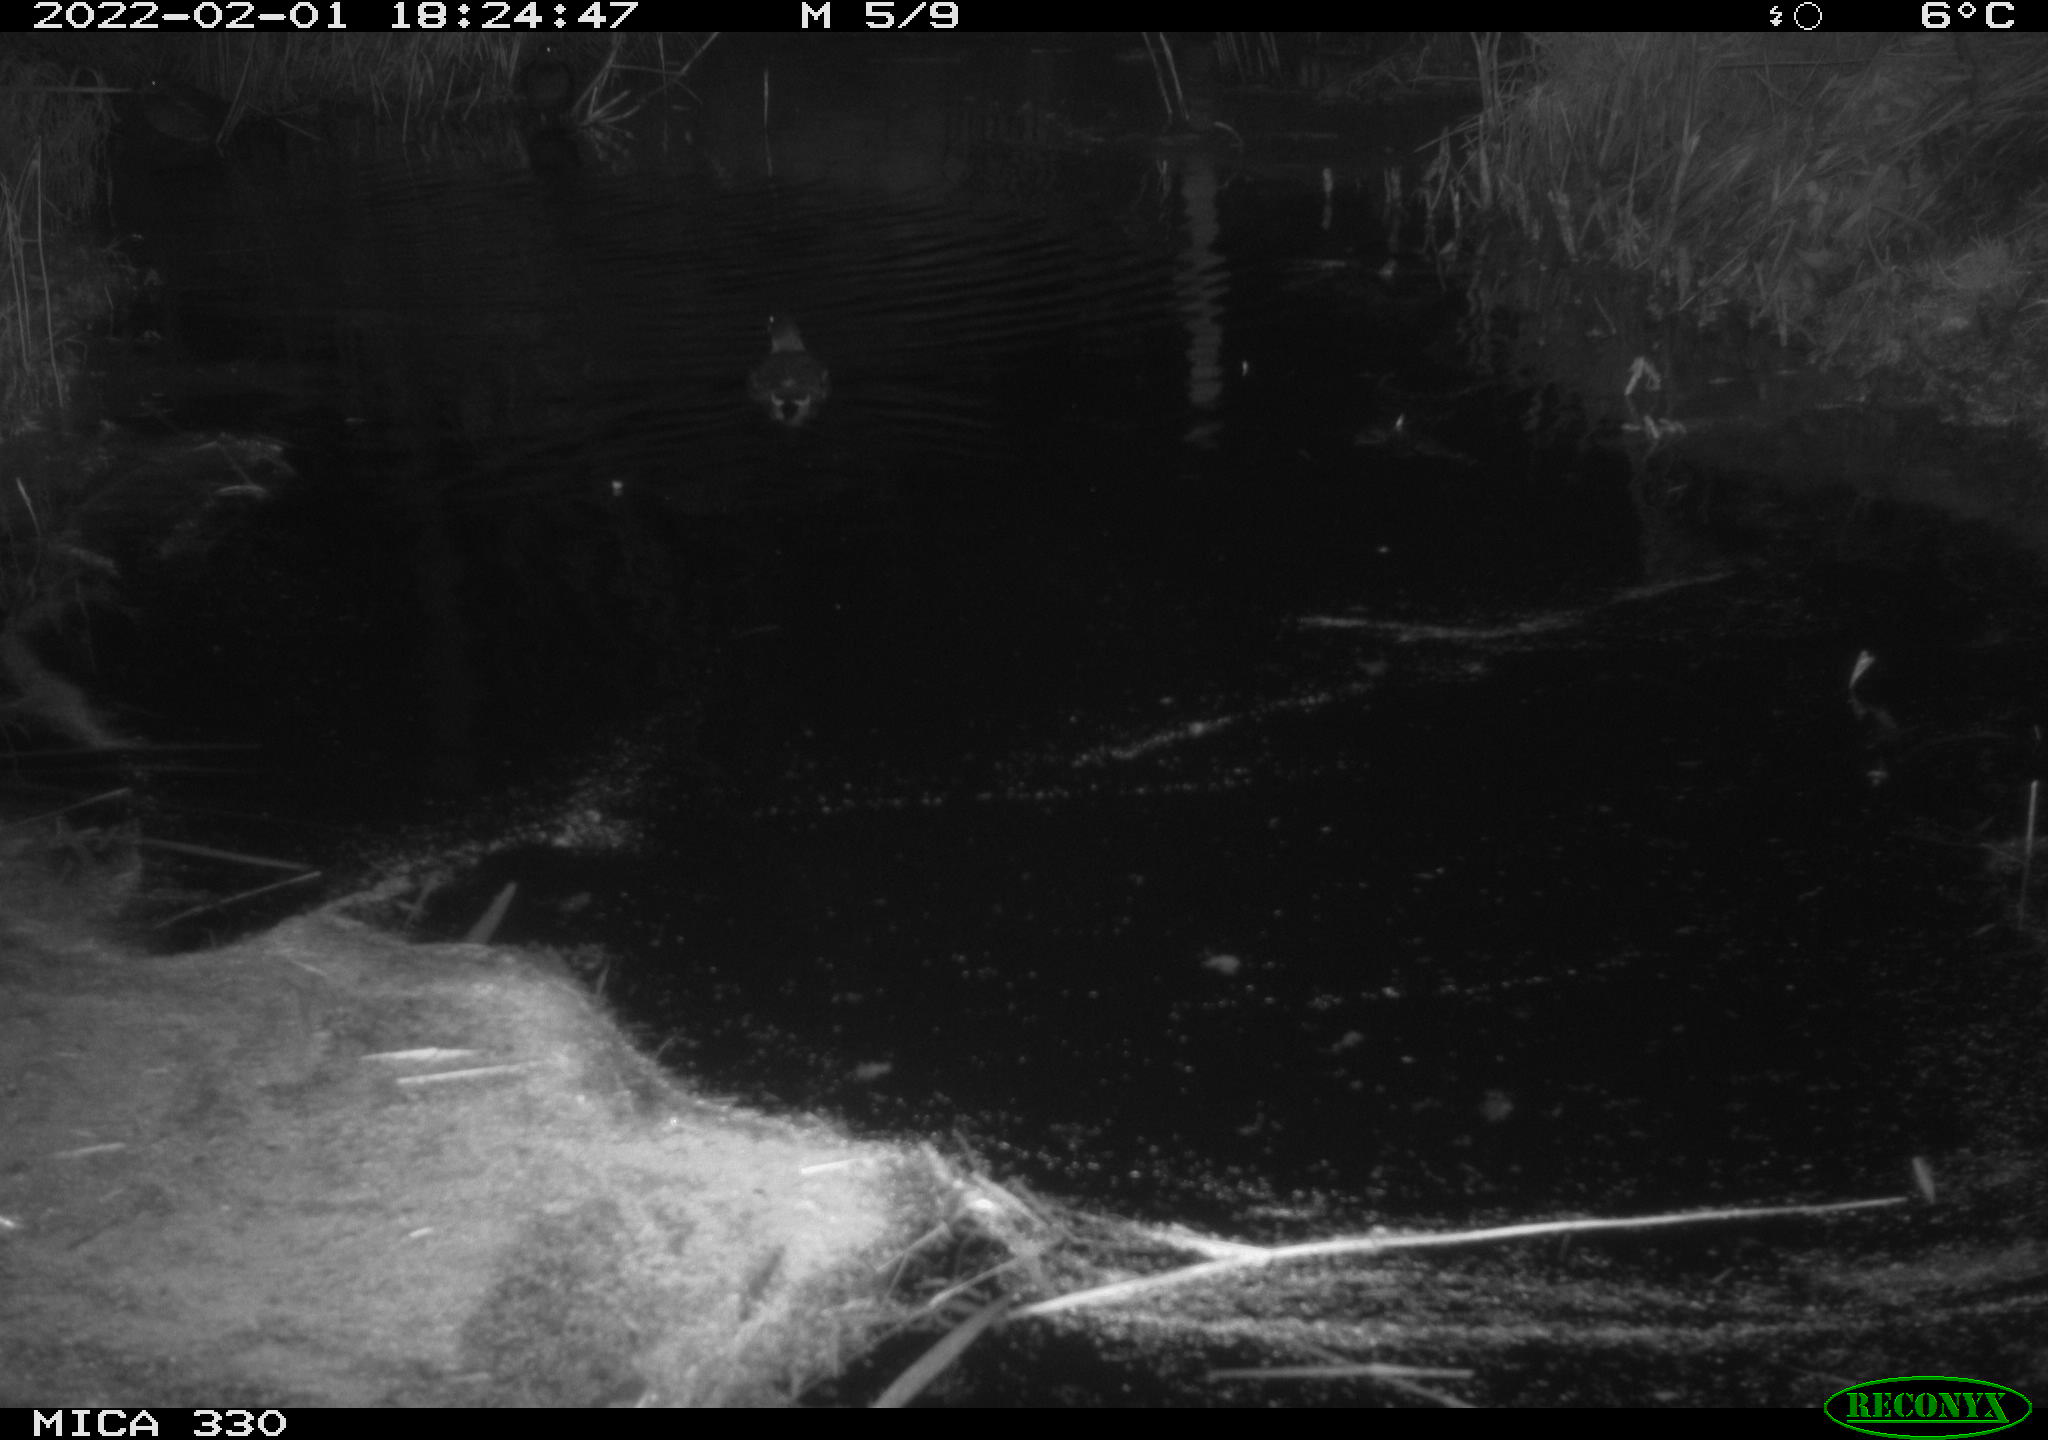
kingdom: Animalia
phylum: Chordata
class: Aves
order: Gruiformes
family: Rallidae
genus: Gallinula
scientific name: Gallinula chloropus
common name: Common moorhen
